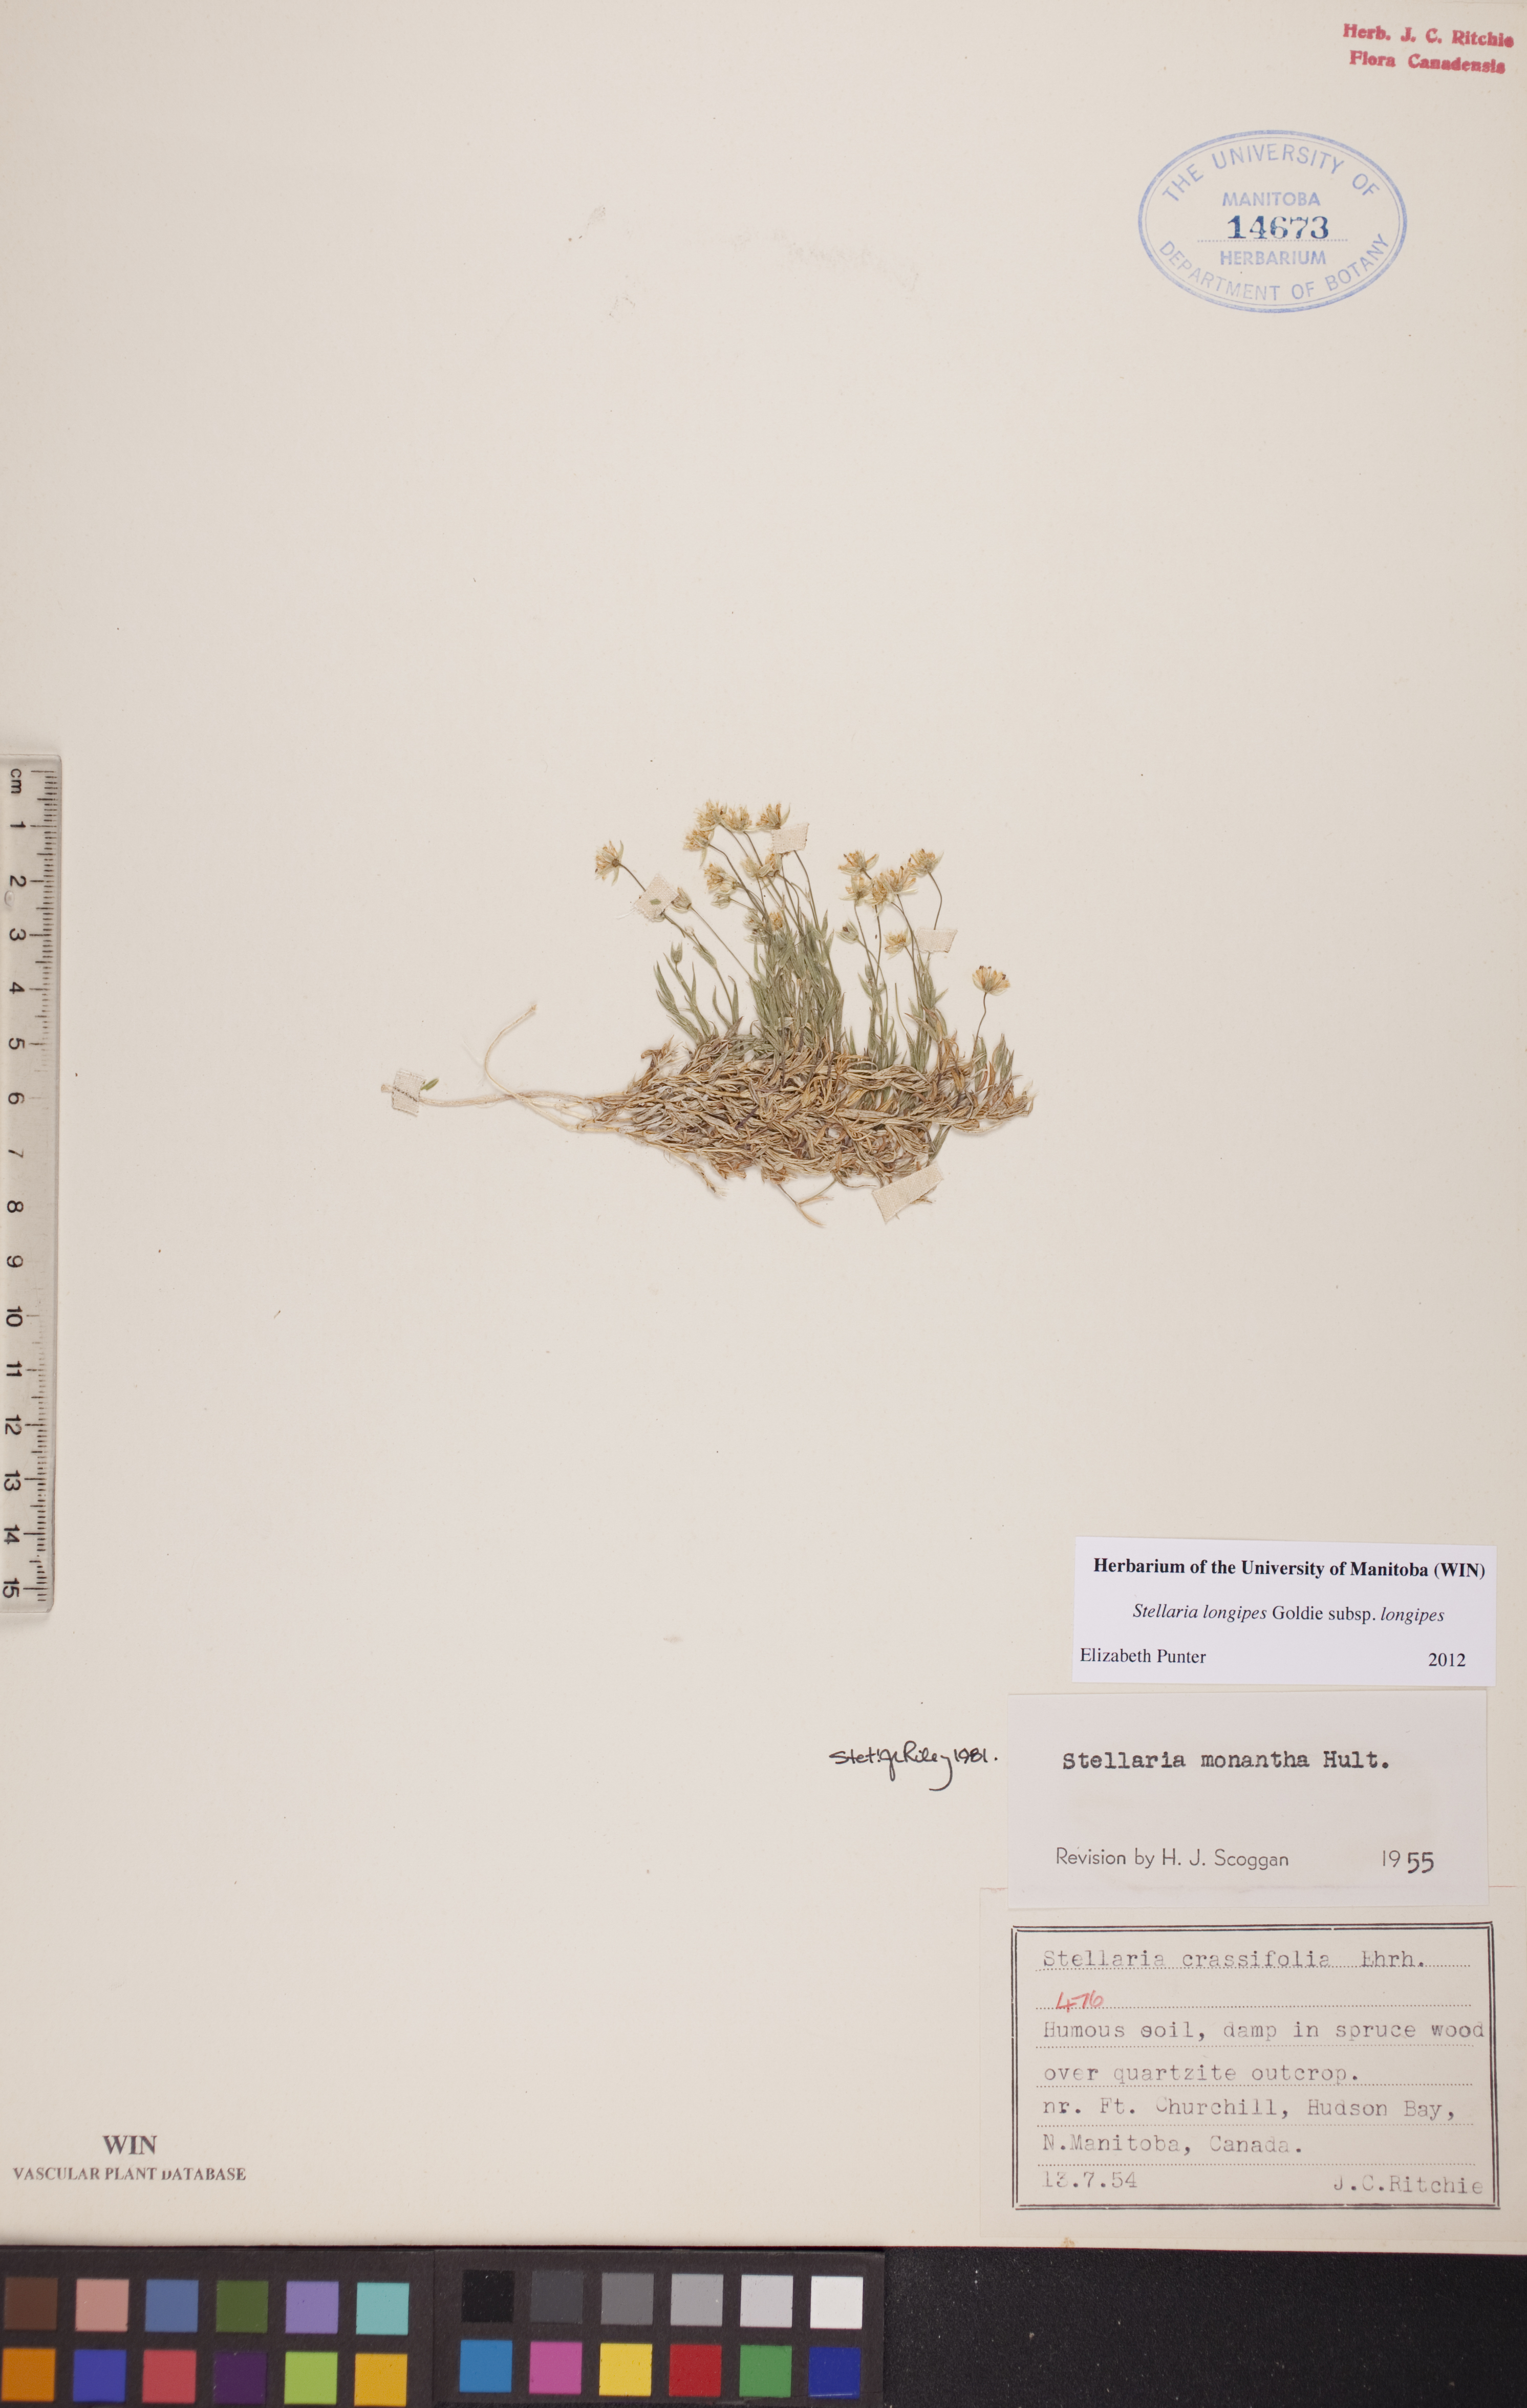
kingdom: Plantae
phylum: Tracheophyta
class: Magnoliopsida
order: Caryophyllales
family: Caryophyllaceae
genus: Stellaria
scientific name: Stellaria longipes
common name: Goldie's starwort
